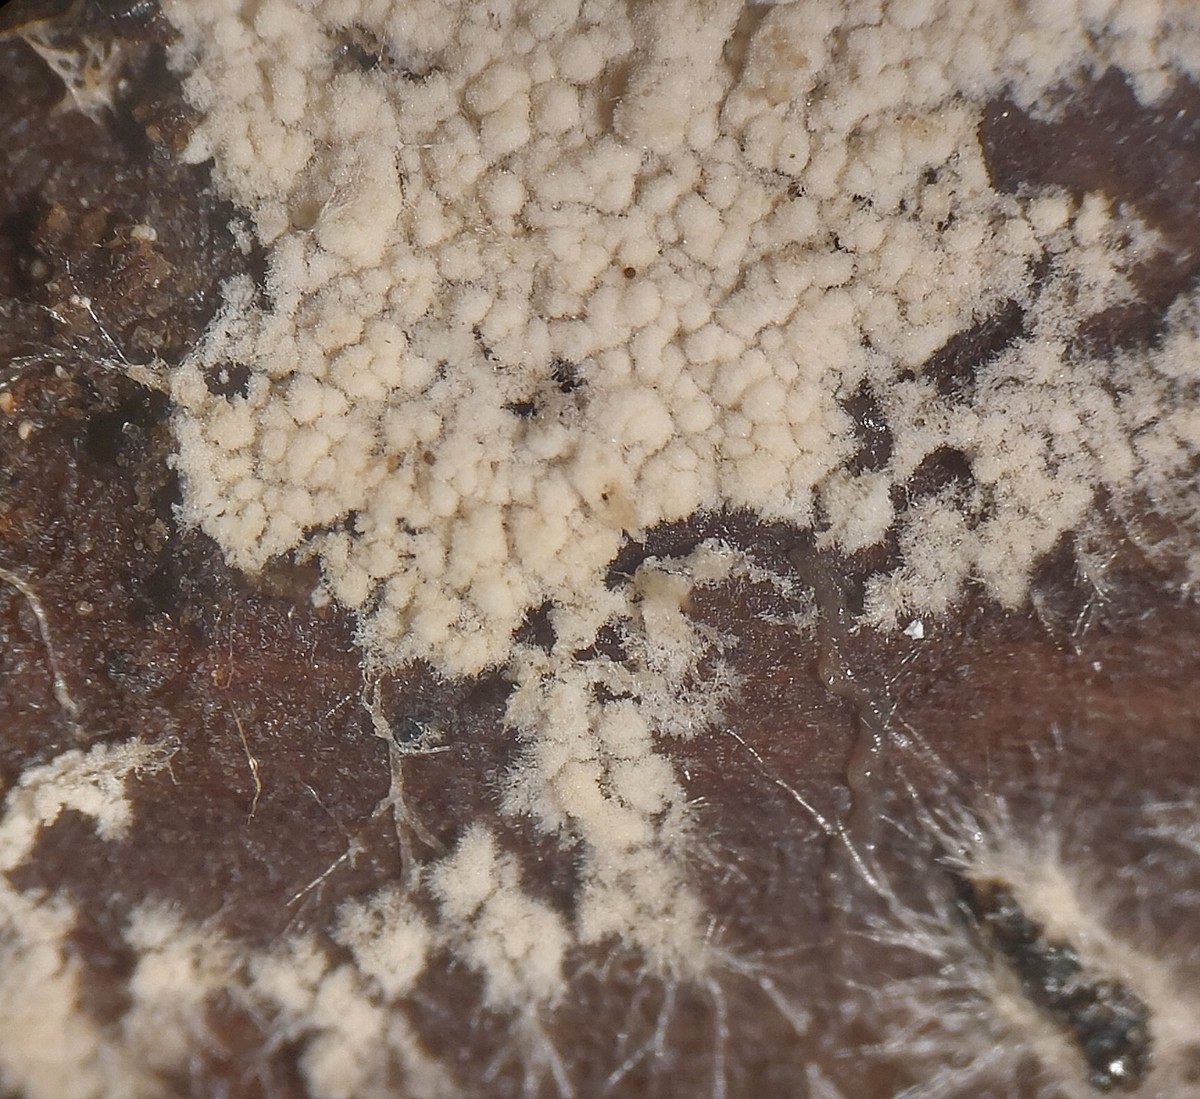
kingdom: Fungi
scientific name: Fungi
